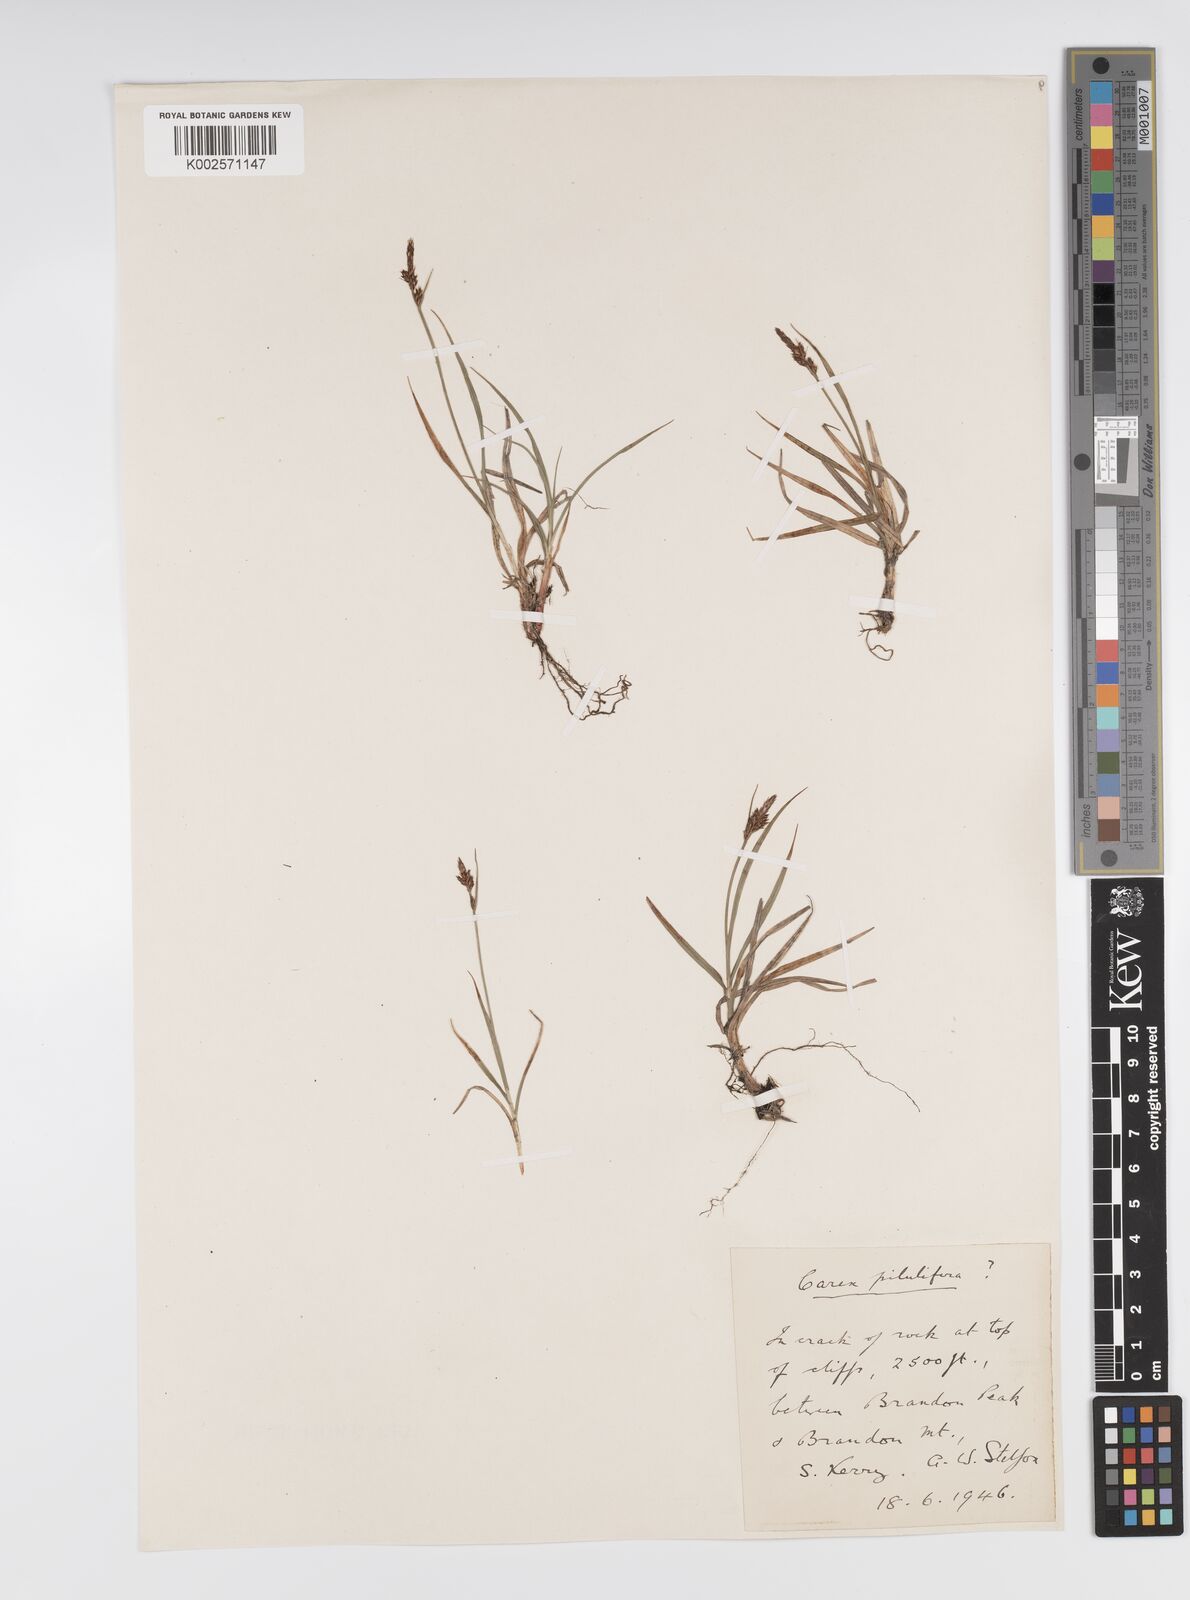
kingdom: Plantae
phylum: Tracheophyta
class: Liliopsida
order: Poales
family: Cyperaceae
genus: Carex
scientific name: Carex pilulifera
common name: Pill sedge
